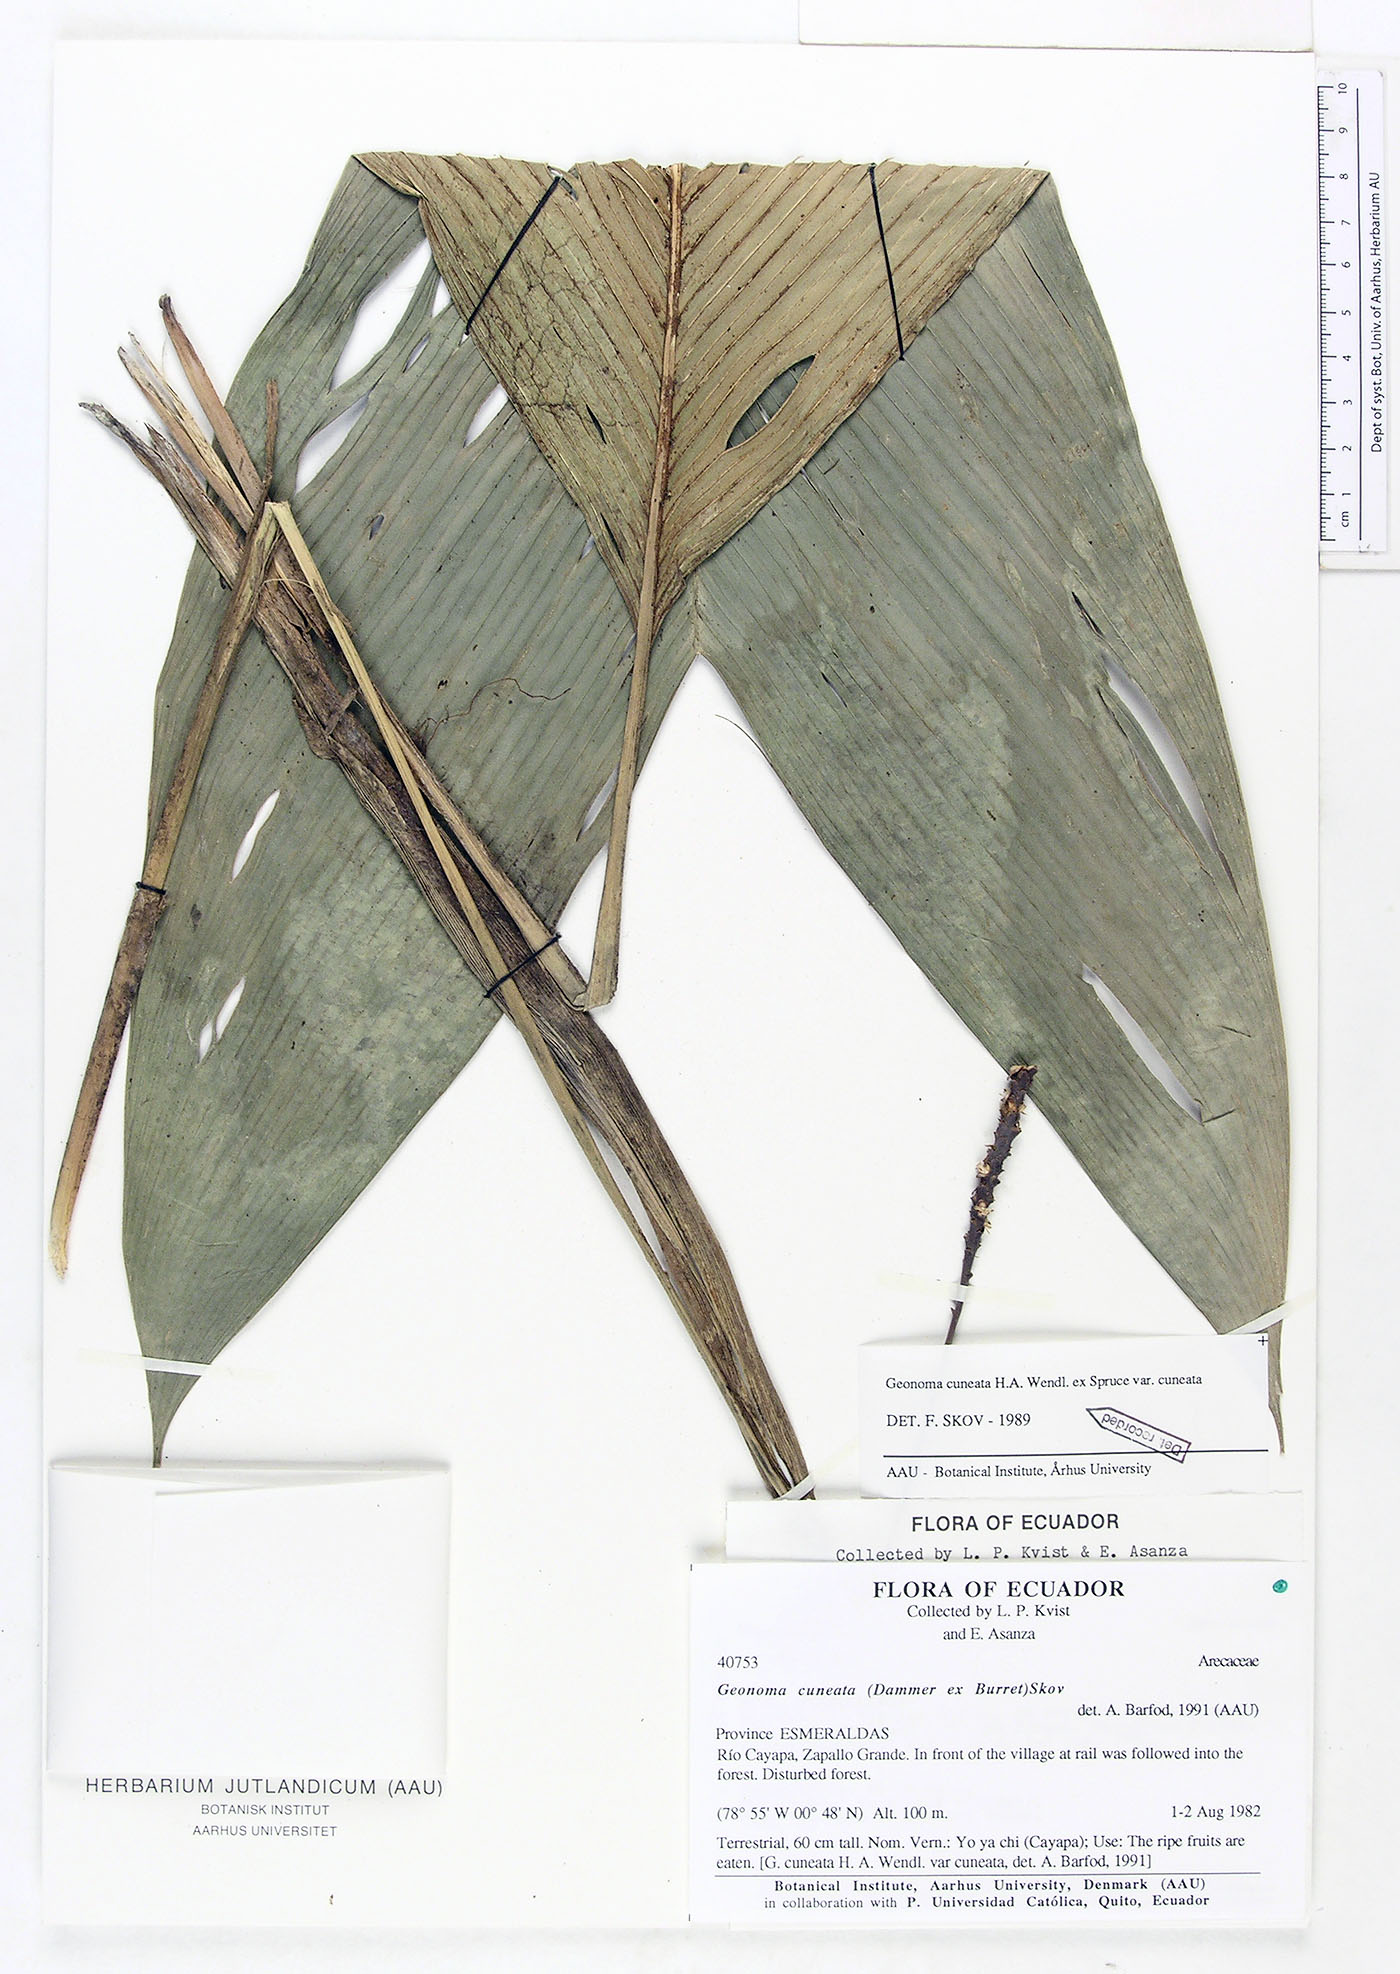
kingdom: Plantae
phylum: Tracheophyta
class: Liliopsida
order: Arecales
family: Arecaceae
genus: Geonoma
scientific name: Geonoma cuneata
